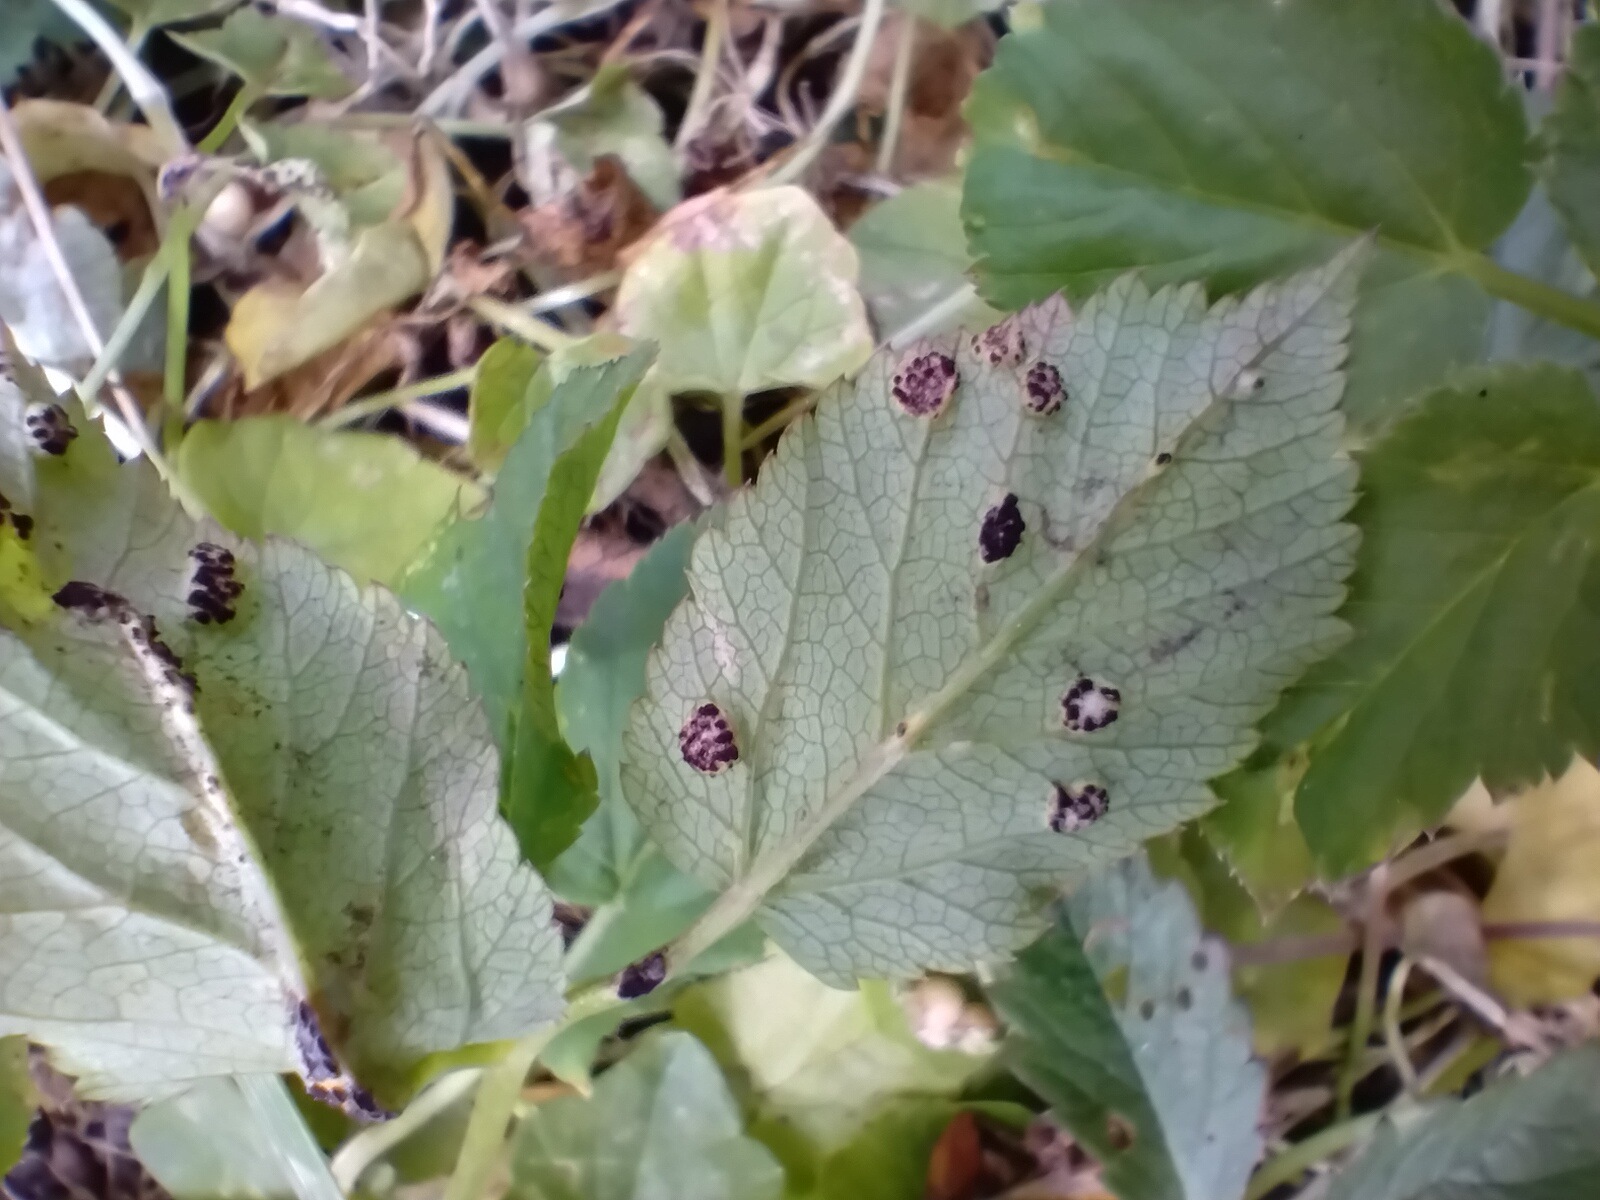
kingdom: Fungi
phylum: Basidiomycota
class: Pucciniomycetes
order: Pucciniales
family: Pucciniaceae
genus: Puccinia
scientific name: Puccinia
